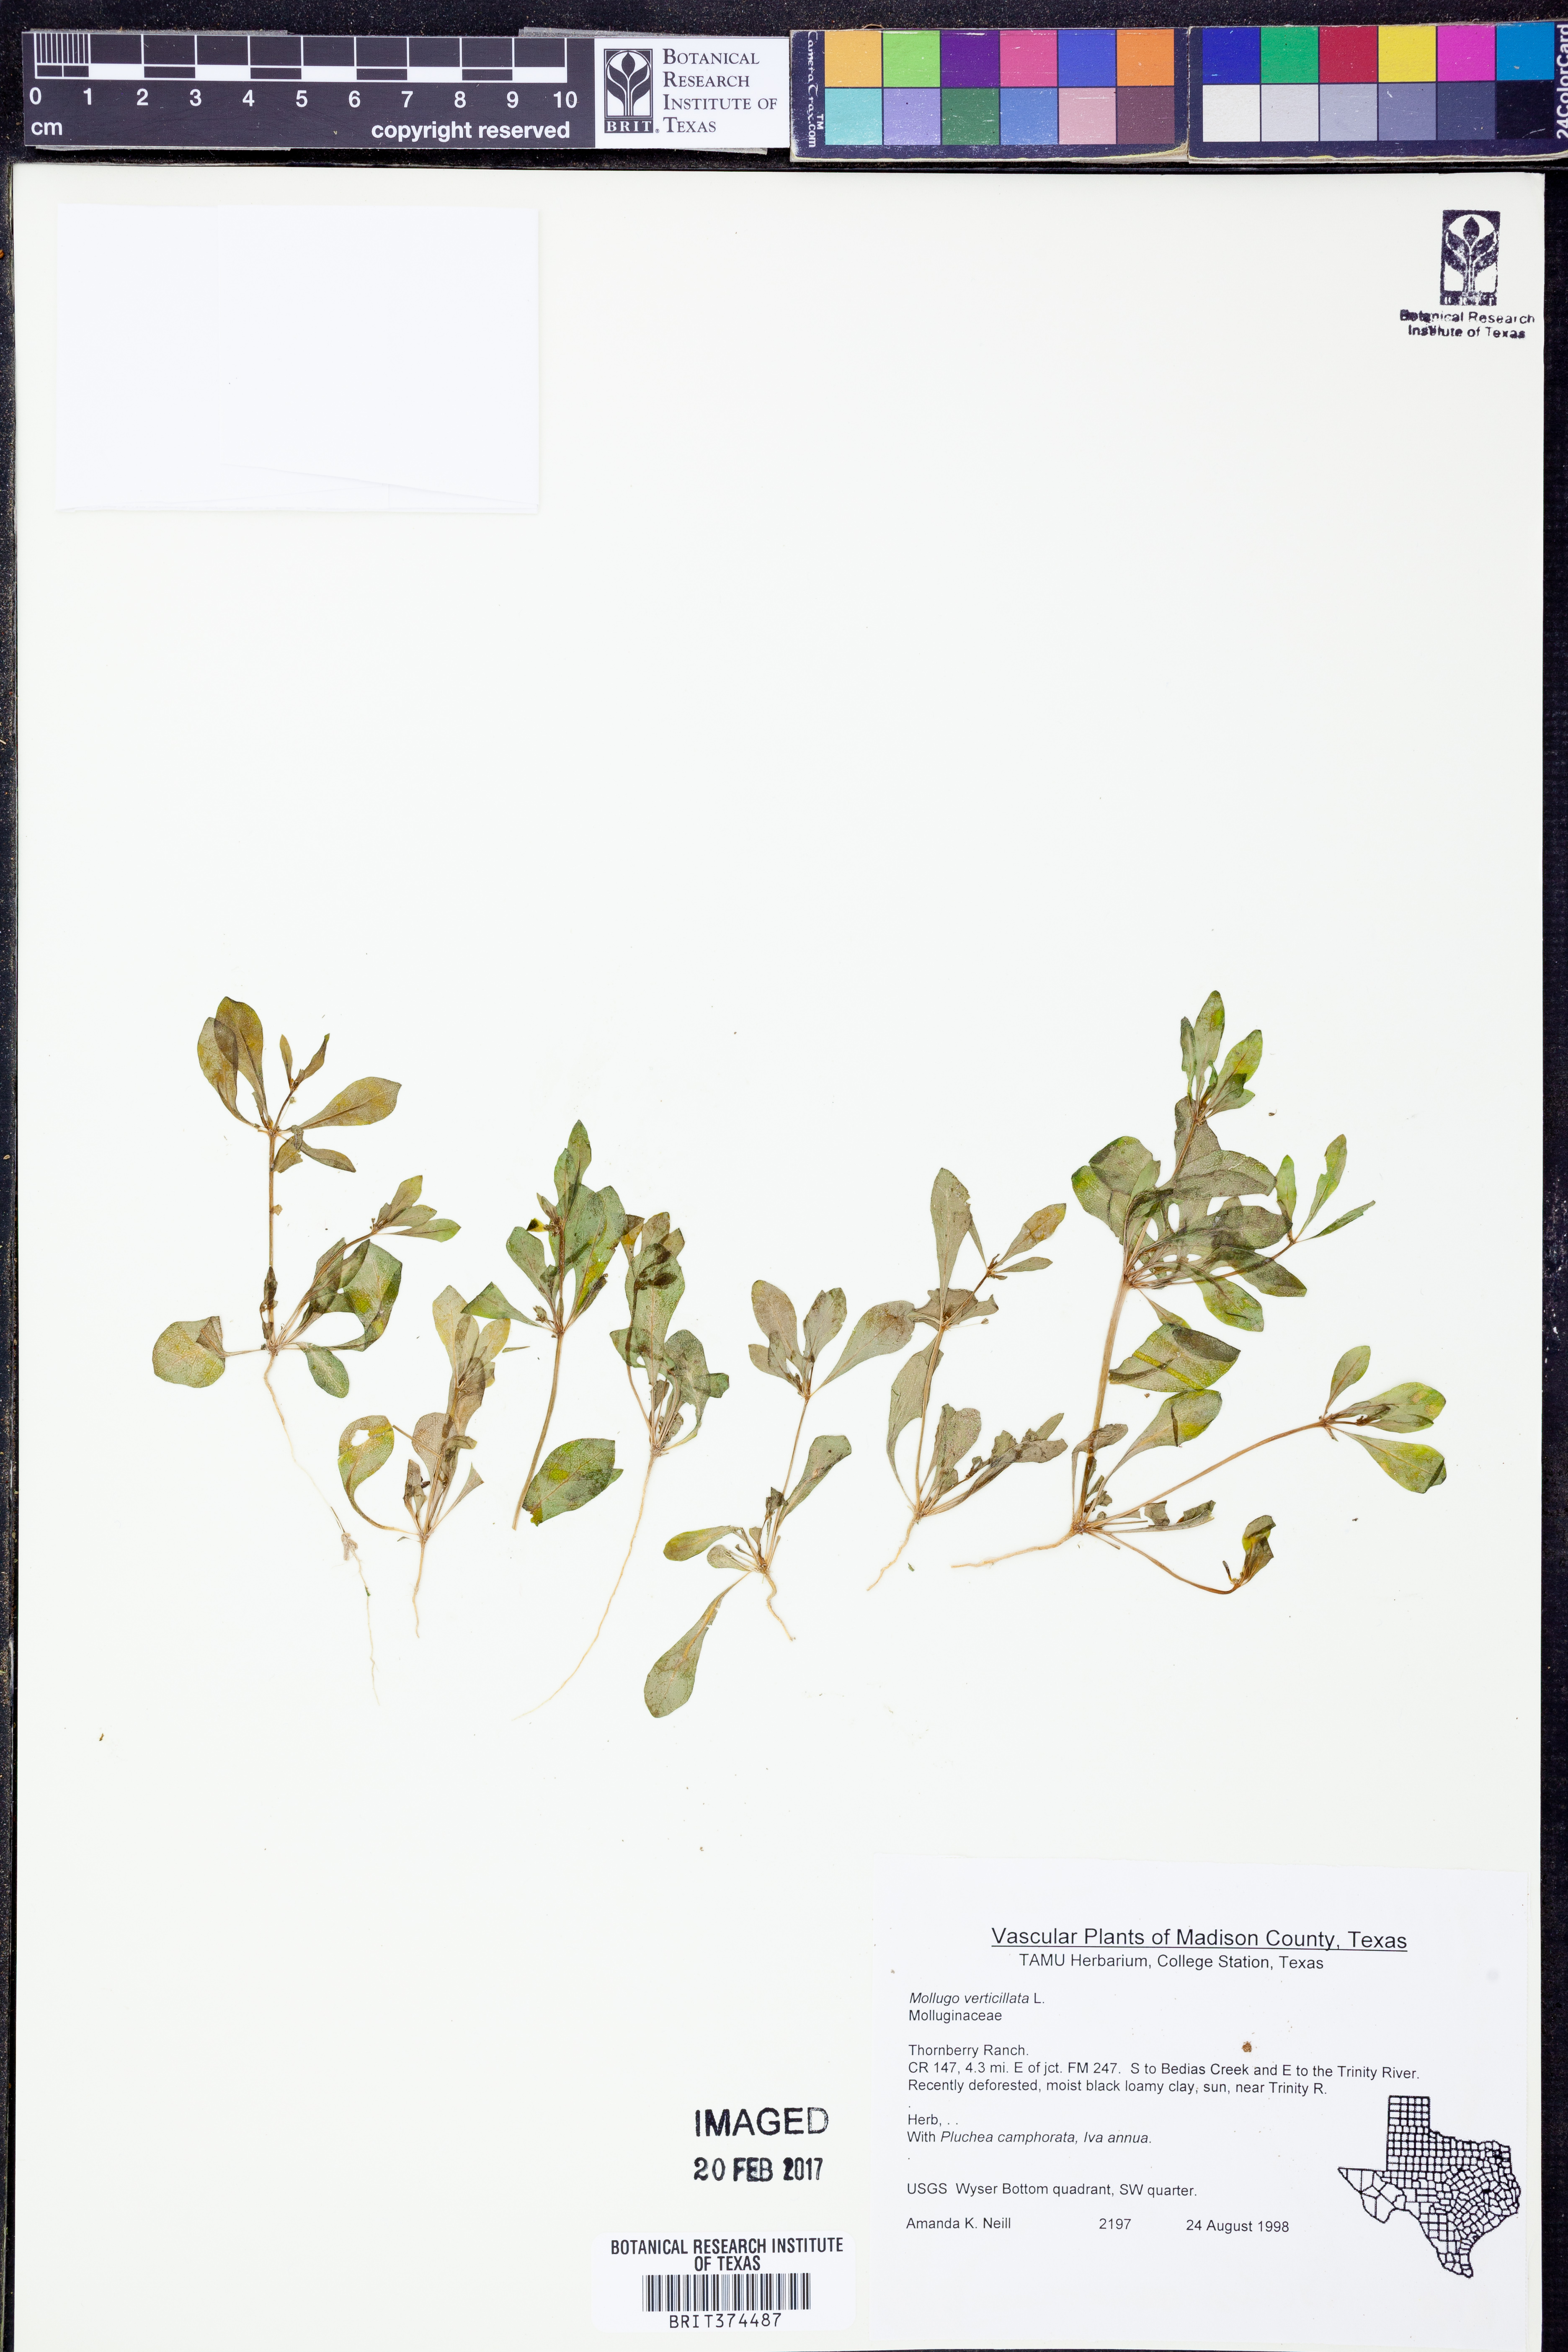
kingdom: Plantae
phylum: Tracheophyta
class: Magnoliopsida
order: Caryophyllales
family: Molluginaceae
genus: Mollugo
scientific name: Mollugo verticillata
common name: Green carpetweed
